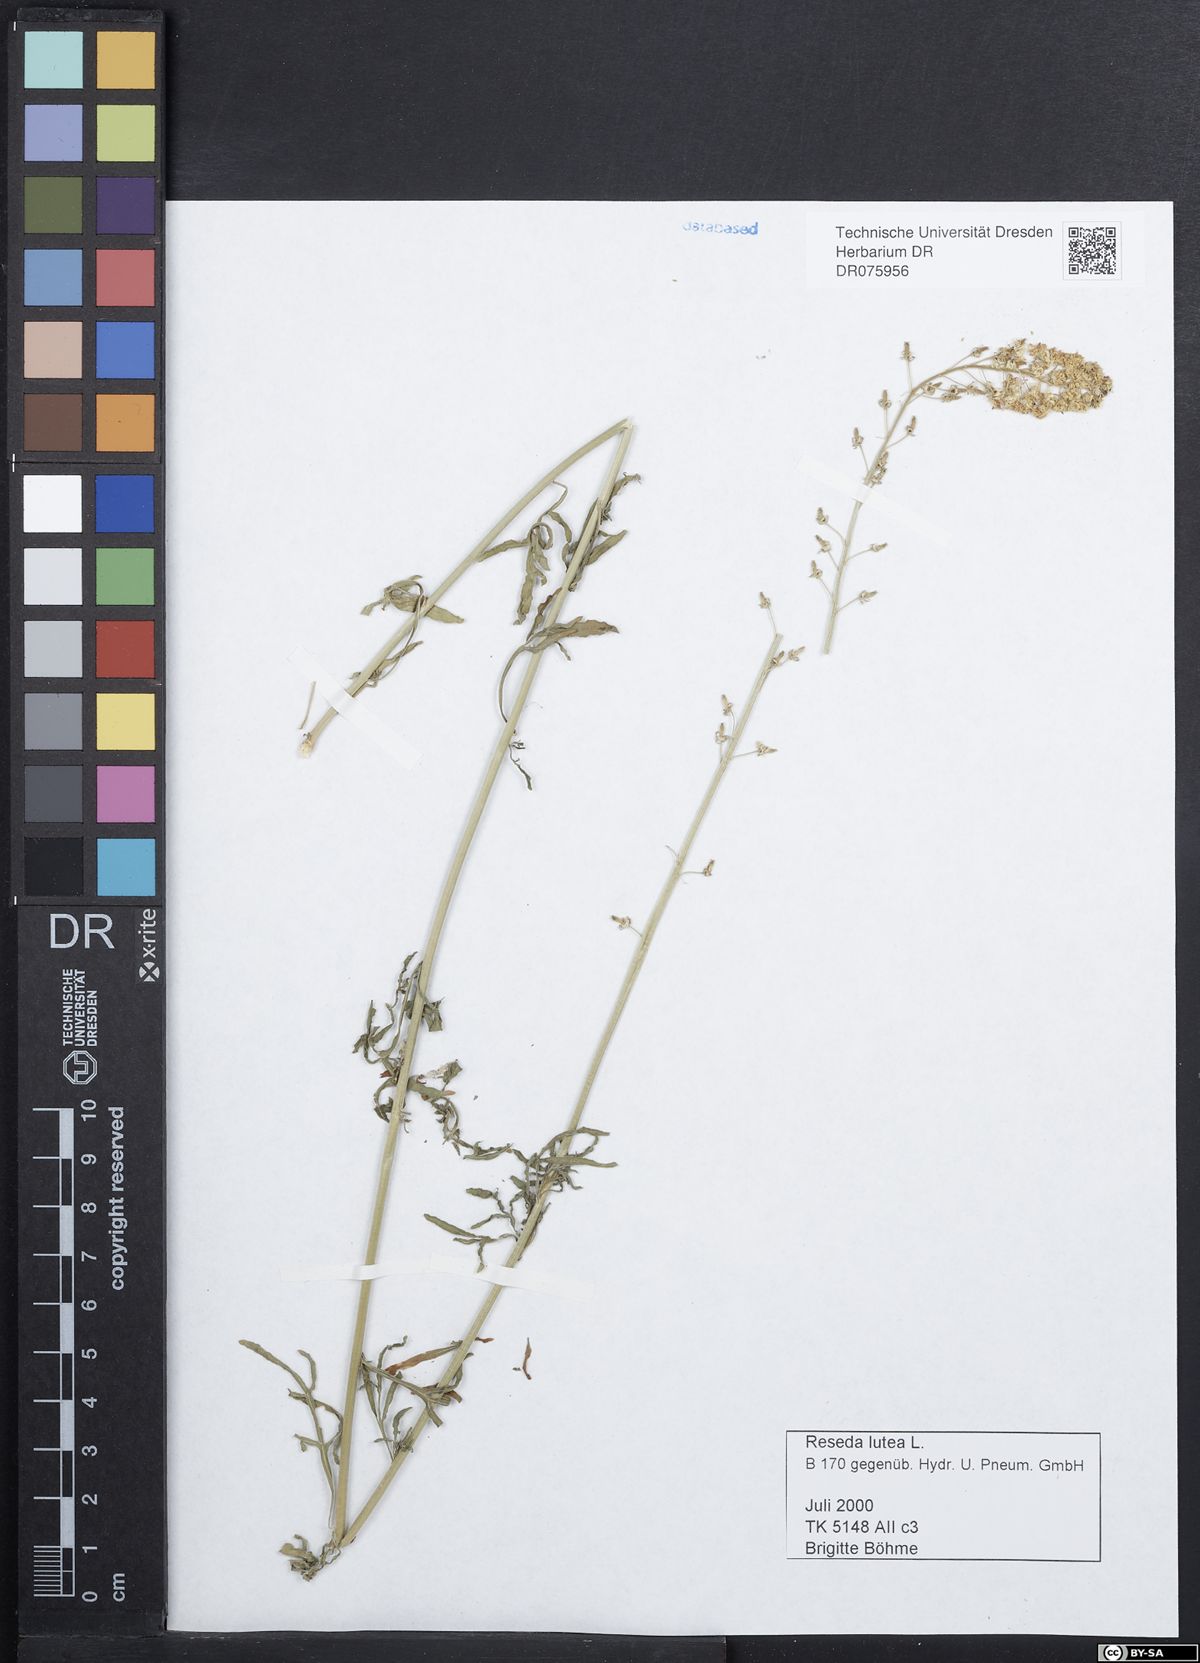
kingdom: Plantae
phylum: Tracheophyta
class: Magnoliopsida
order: Brassicales
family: Resedaceae
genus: Reseda
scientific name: Reseda lutea
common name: Wild mignonette
